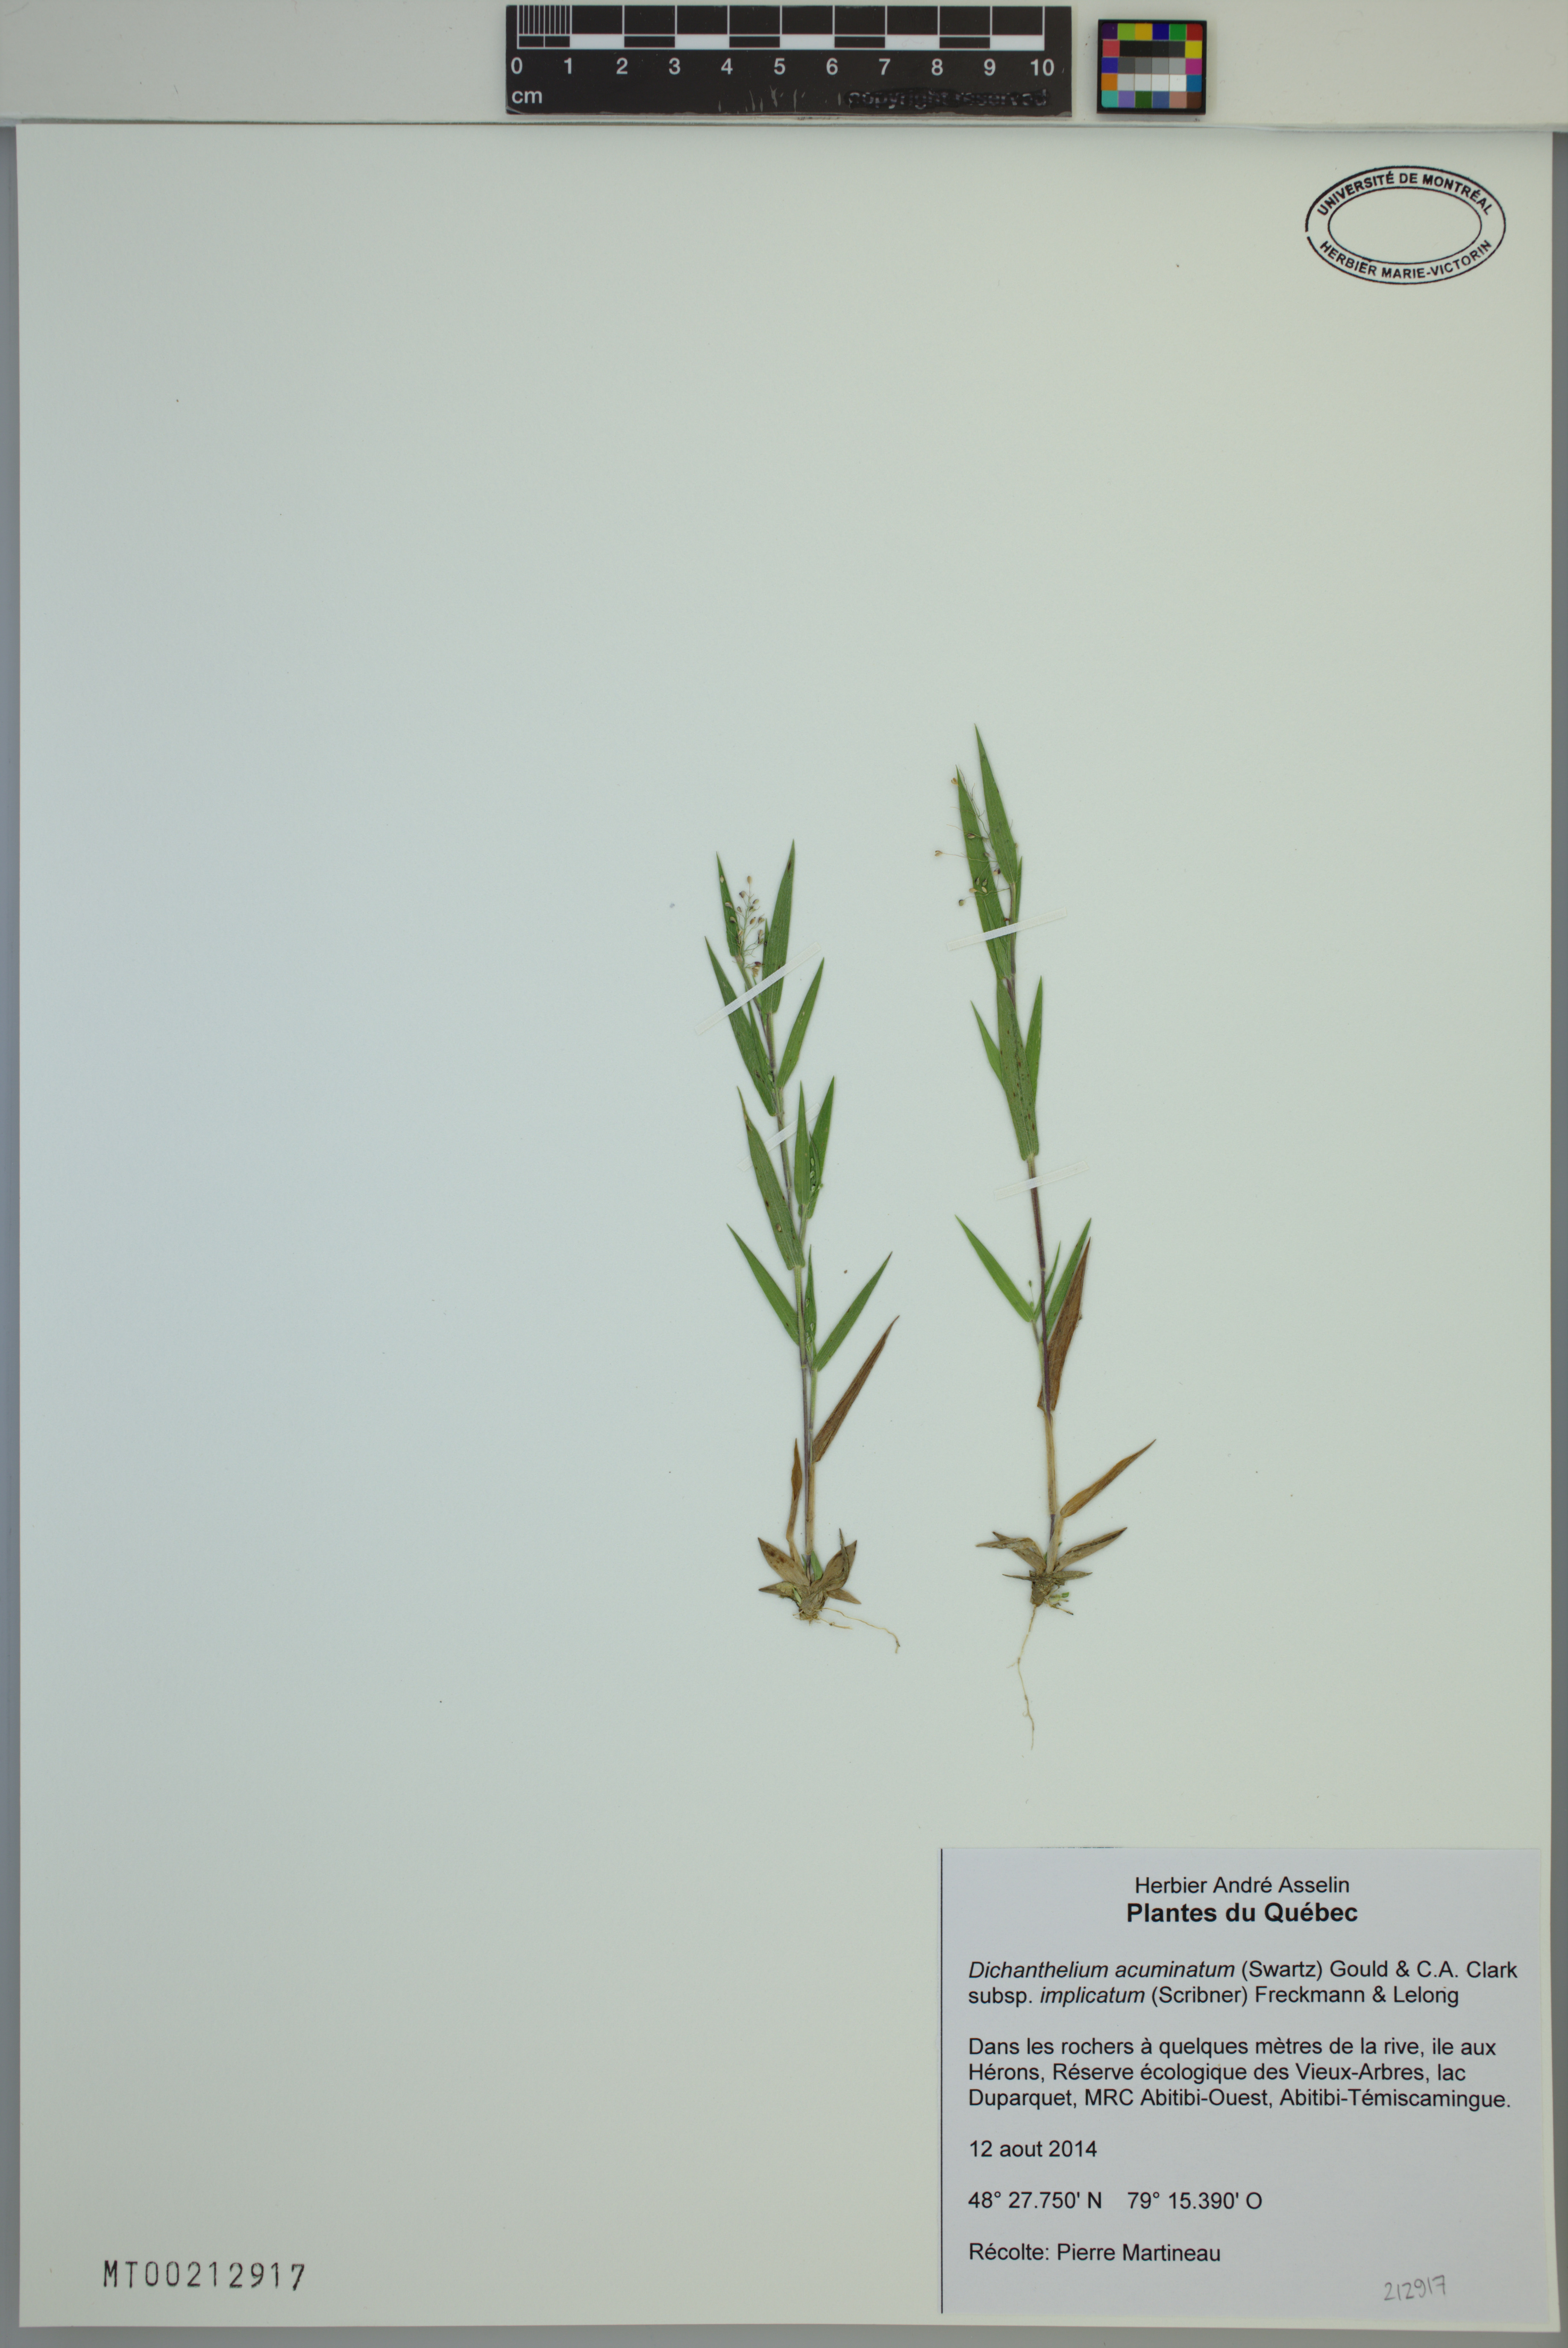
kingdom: Plantae
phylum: Tracheophyta
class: Liliopsida
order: Poales
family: Poaceae
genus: Dichanthelium
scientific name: Dichanthelium implicatum
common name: Slender-stemmed panicgrass
